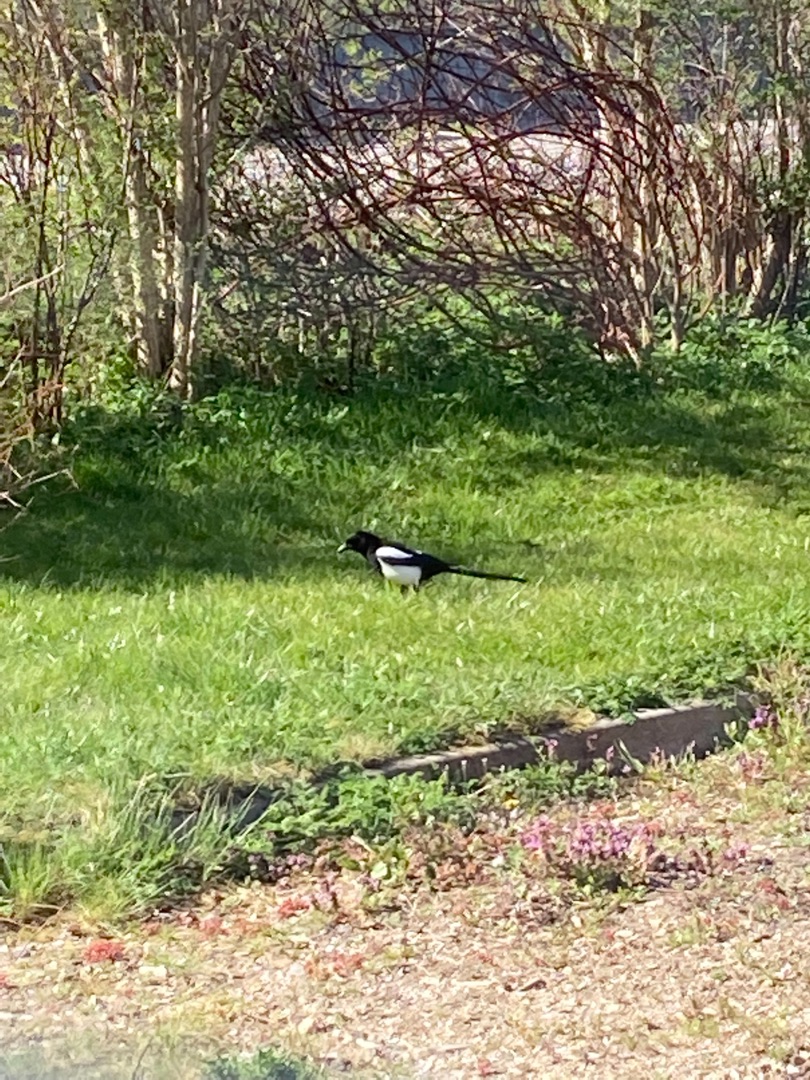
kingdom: Animalia
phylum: Chordata
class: Aves
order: Passeriformes
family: Corvidae
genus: Pica
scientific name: Pica pica
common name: Husskade
